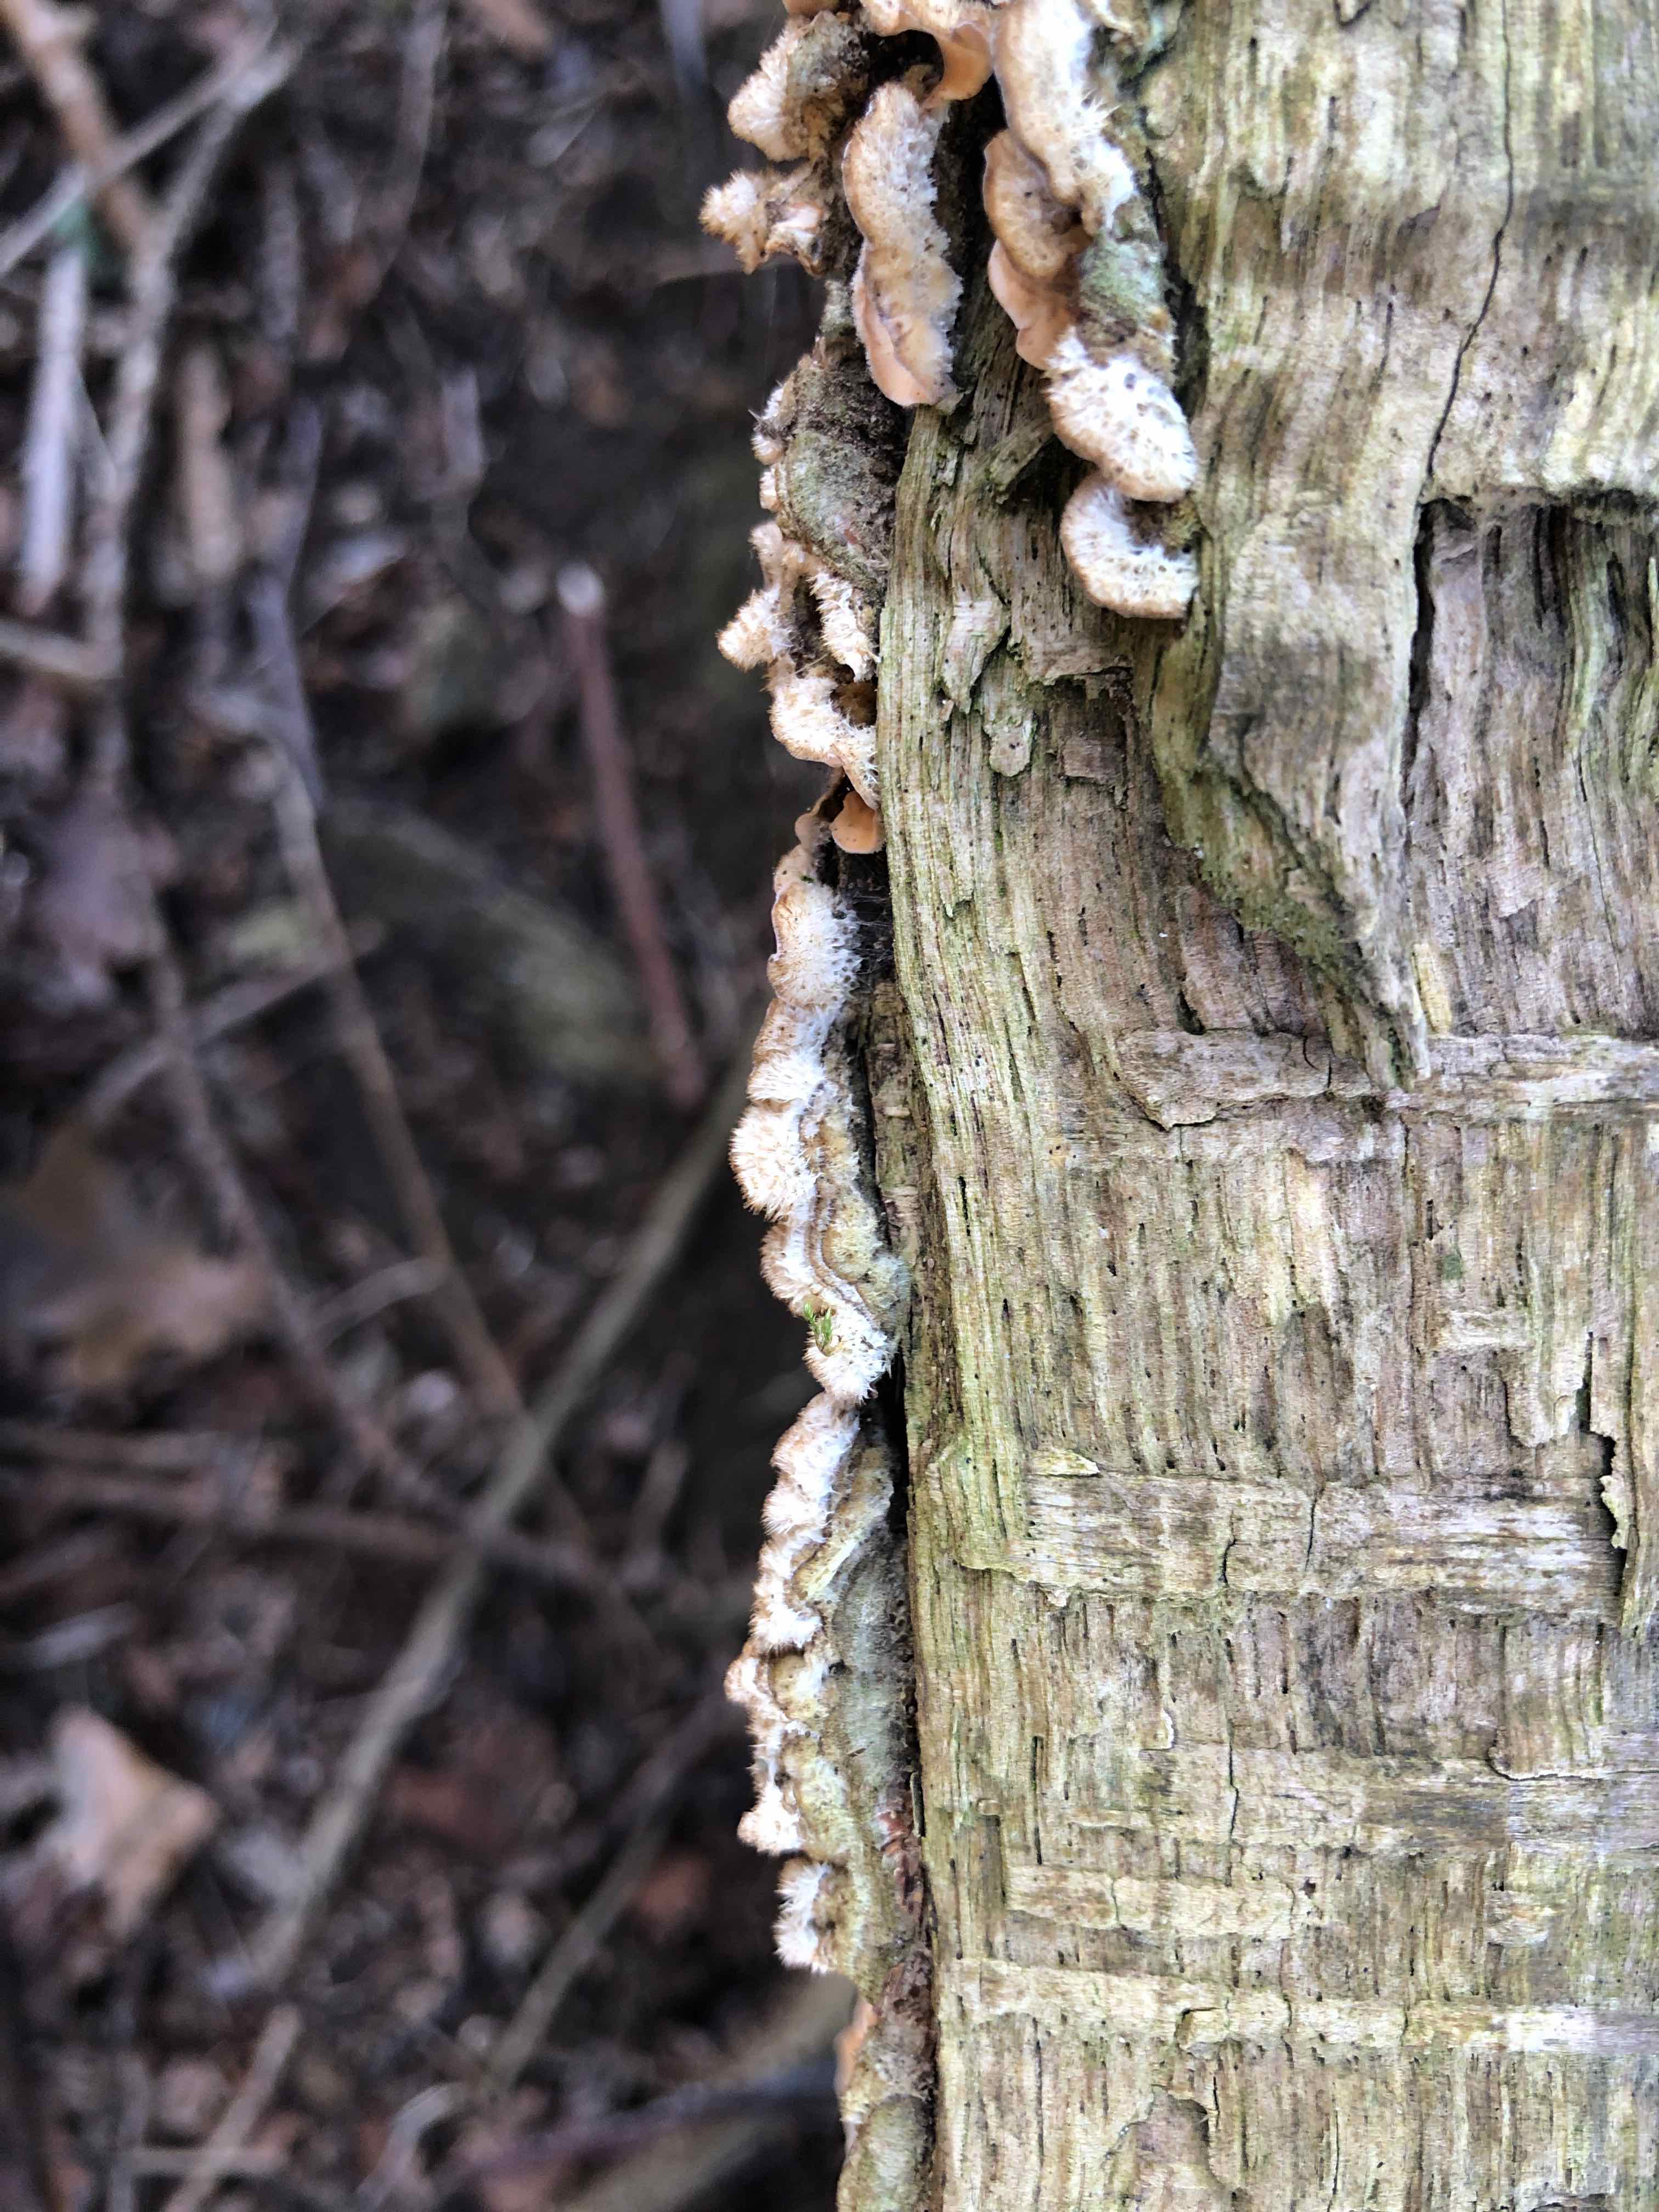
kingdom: Fungi
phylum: Basidiomycota
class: Agaricomycetes
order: Russulales
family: Stereaceae
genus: Stereum
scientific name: Stereum hirsutum
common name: håret lædersvamp
